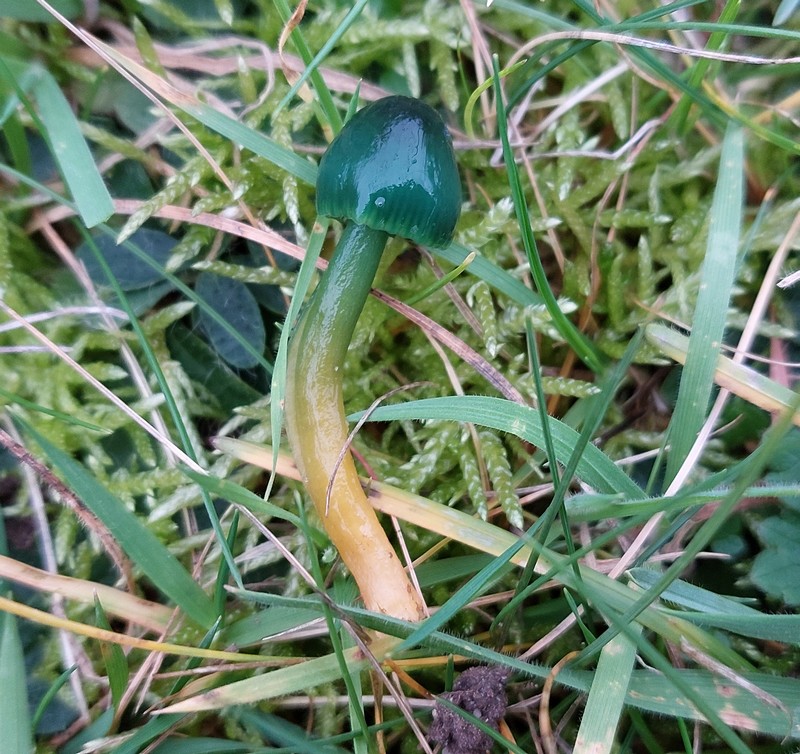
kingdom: Fungi
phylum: Basidiomycota
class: Agaricomycetes
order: Agaricales
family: Hygrophoraceae
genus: Gliophorus
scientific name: Gliophorus psittacinus
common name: papegøje-vokshat
